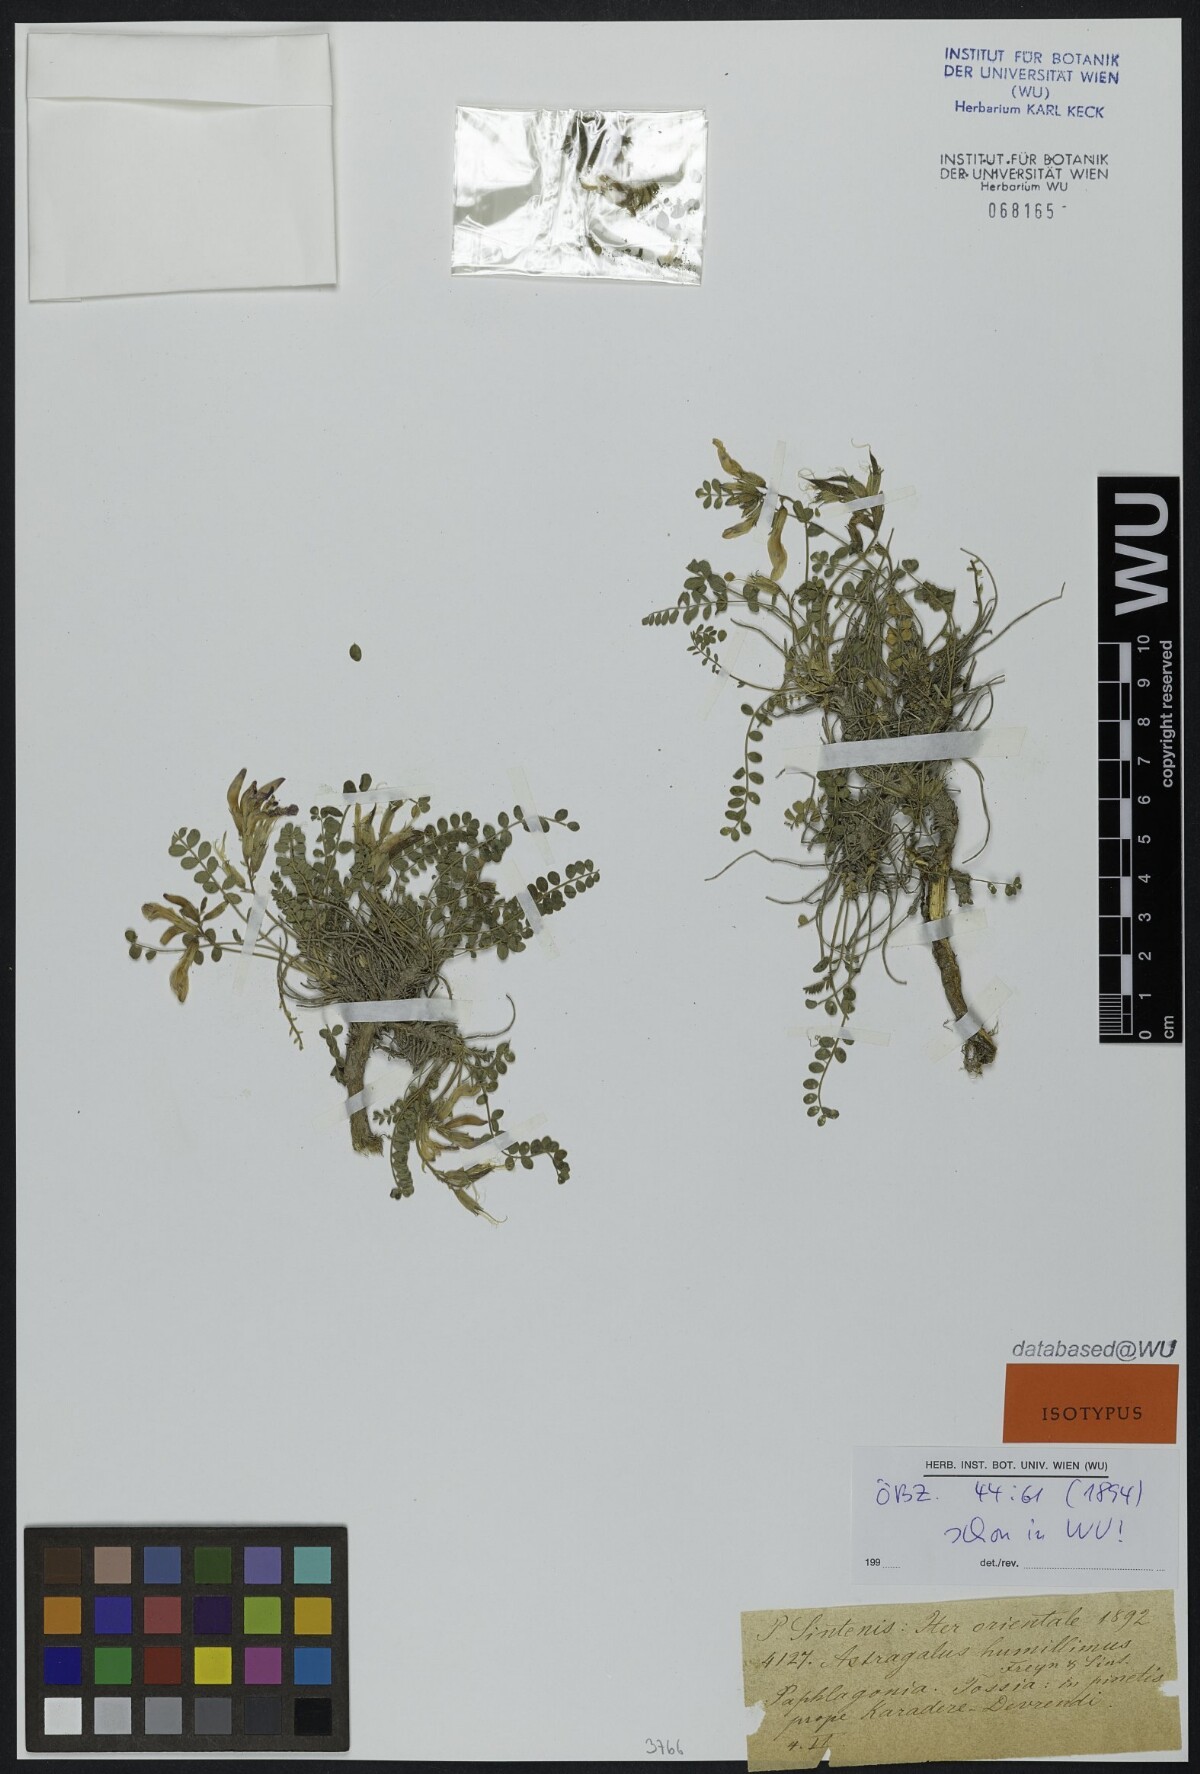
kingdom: Plantae
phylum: Tracheophyta
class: Magnoliopsida
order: Fabales
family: Fabaceae
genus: Astragalus
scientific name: Astragalus prosgaeus
